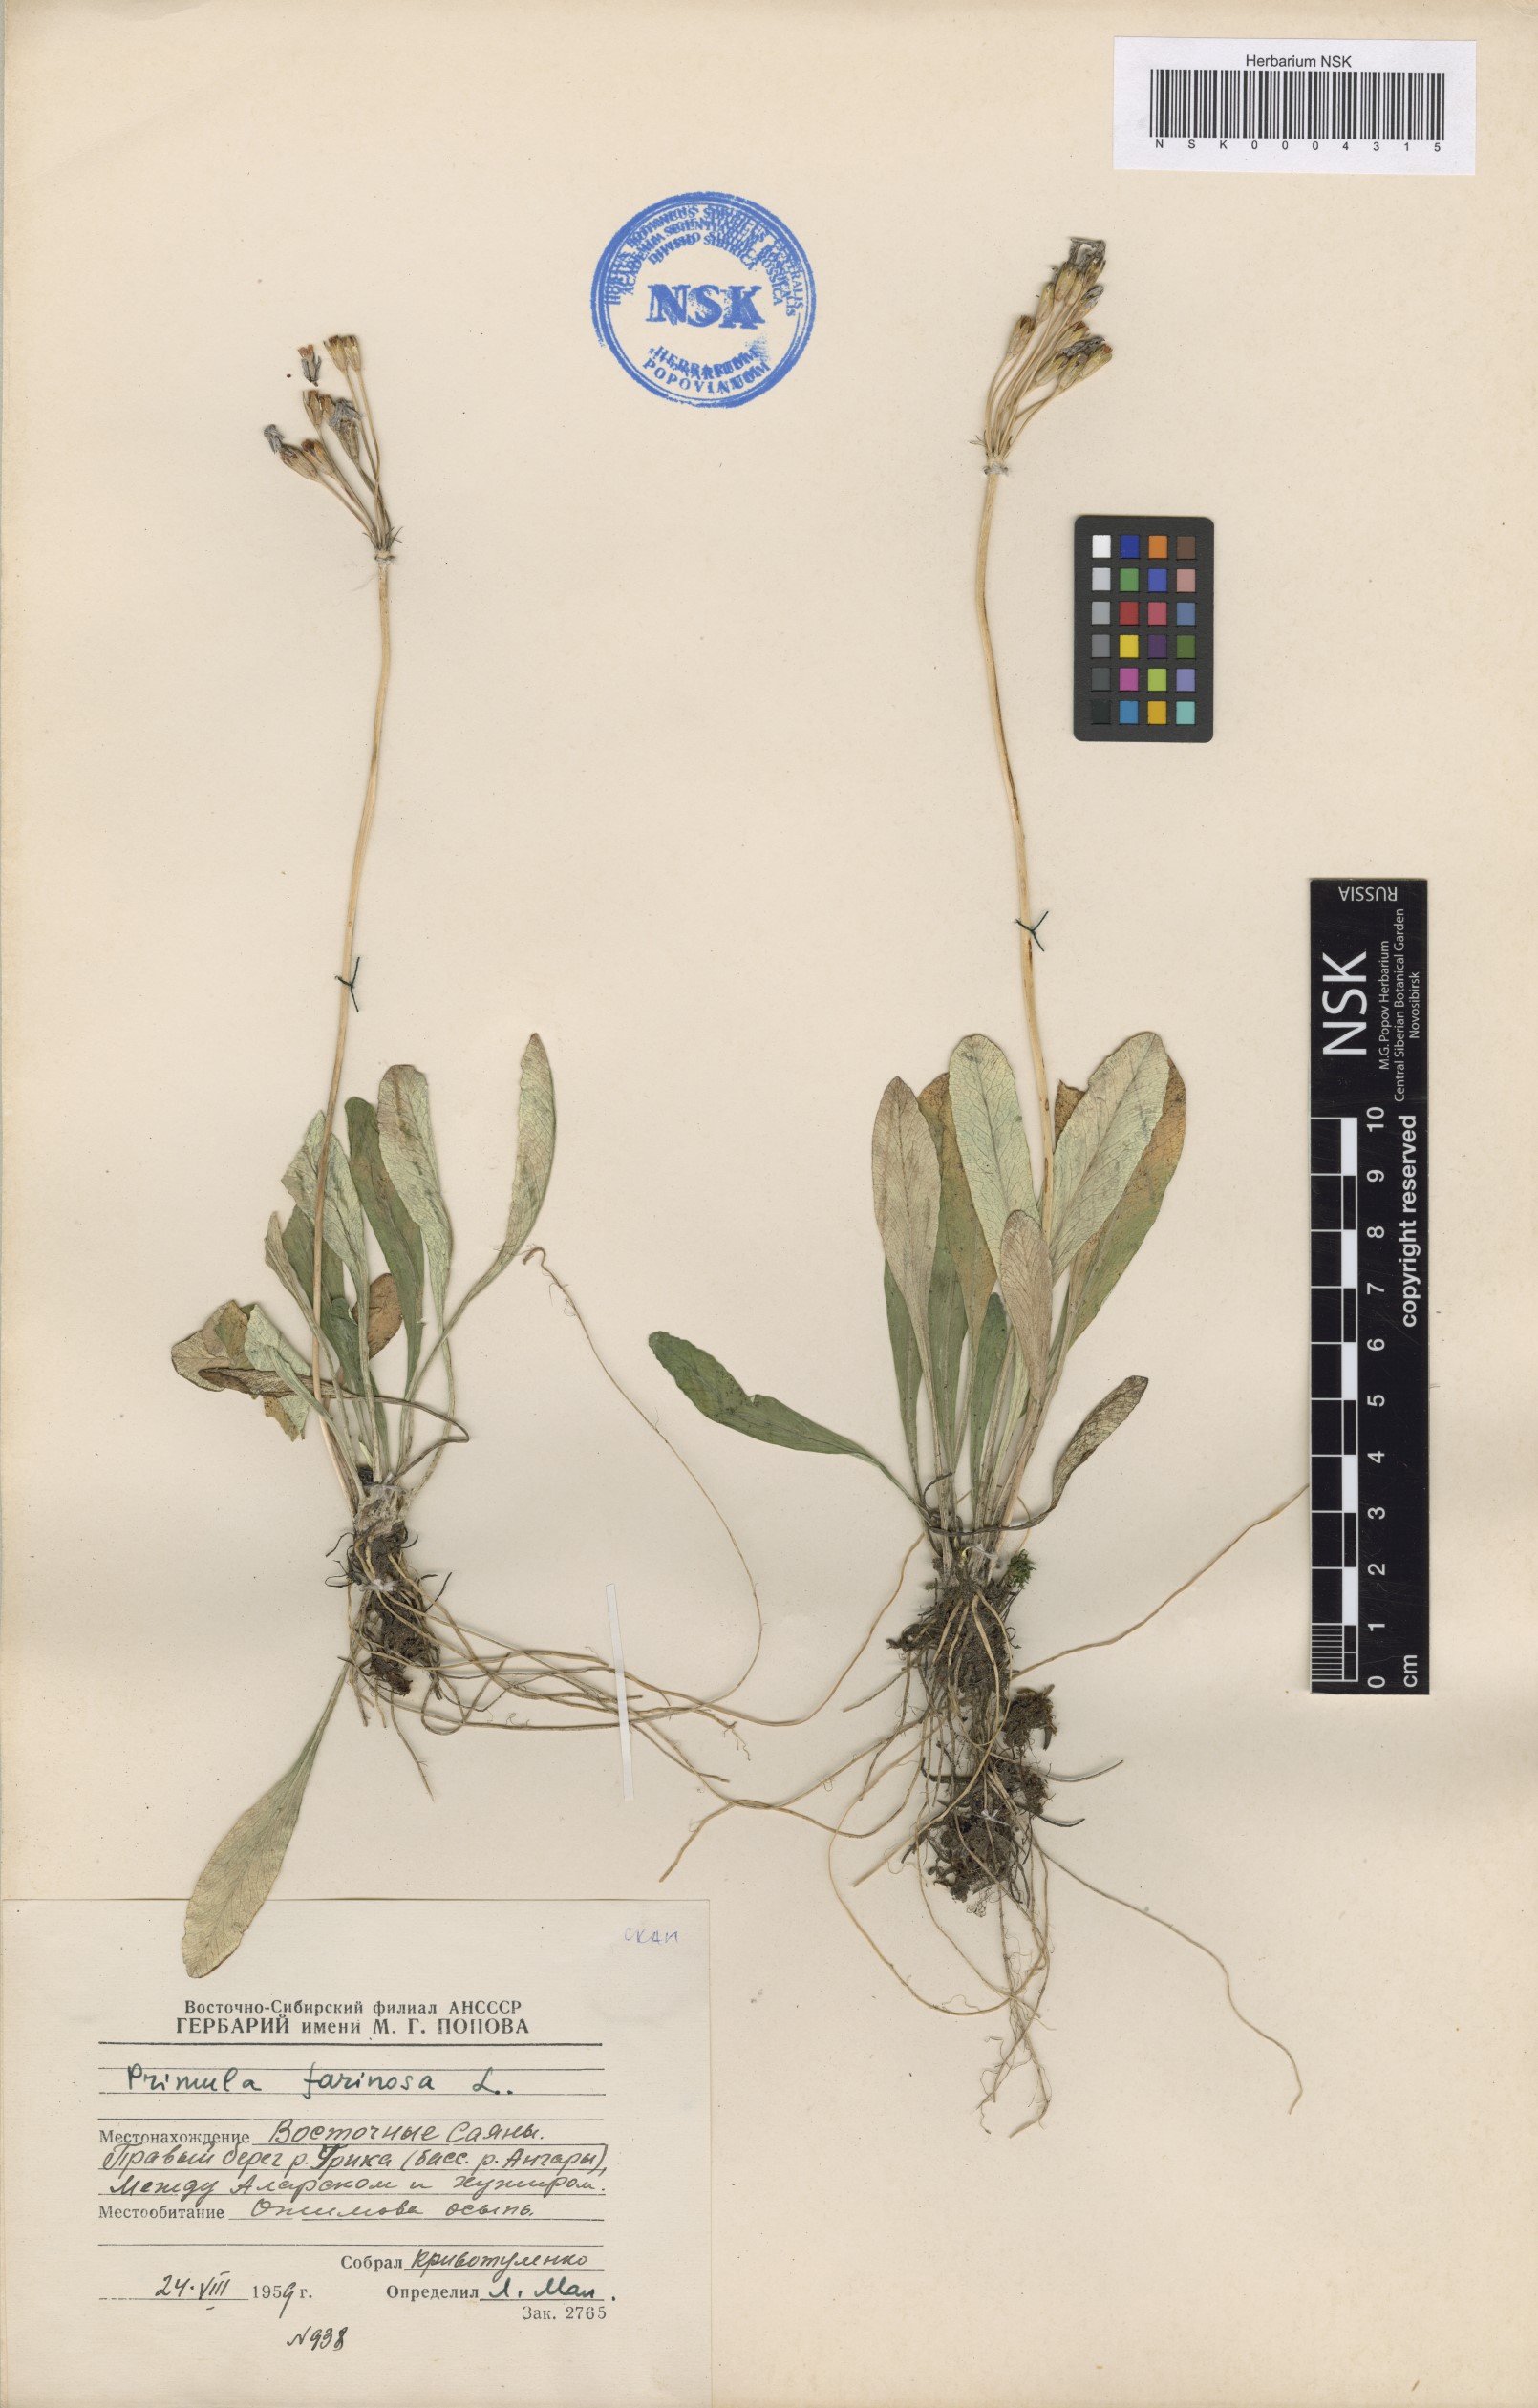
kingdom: Plantae
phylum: Tracheophyta
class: Magnoliopsida
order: Ericales
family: Primulaceae
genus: Primula
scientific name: Primula farinosa
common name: Bird's-eye primrose
